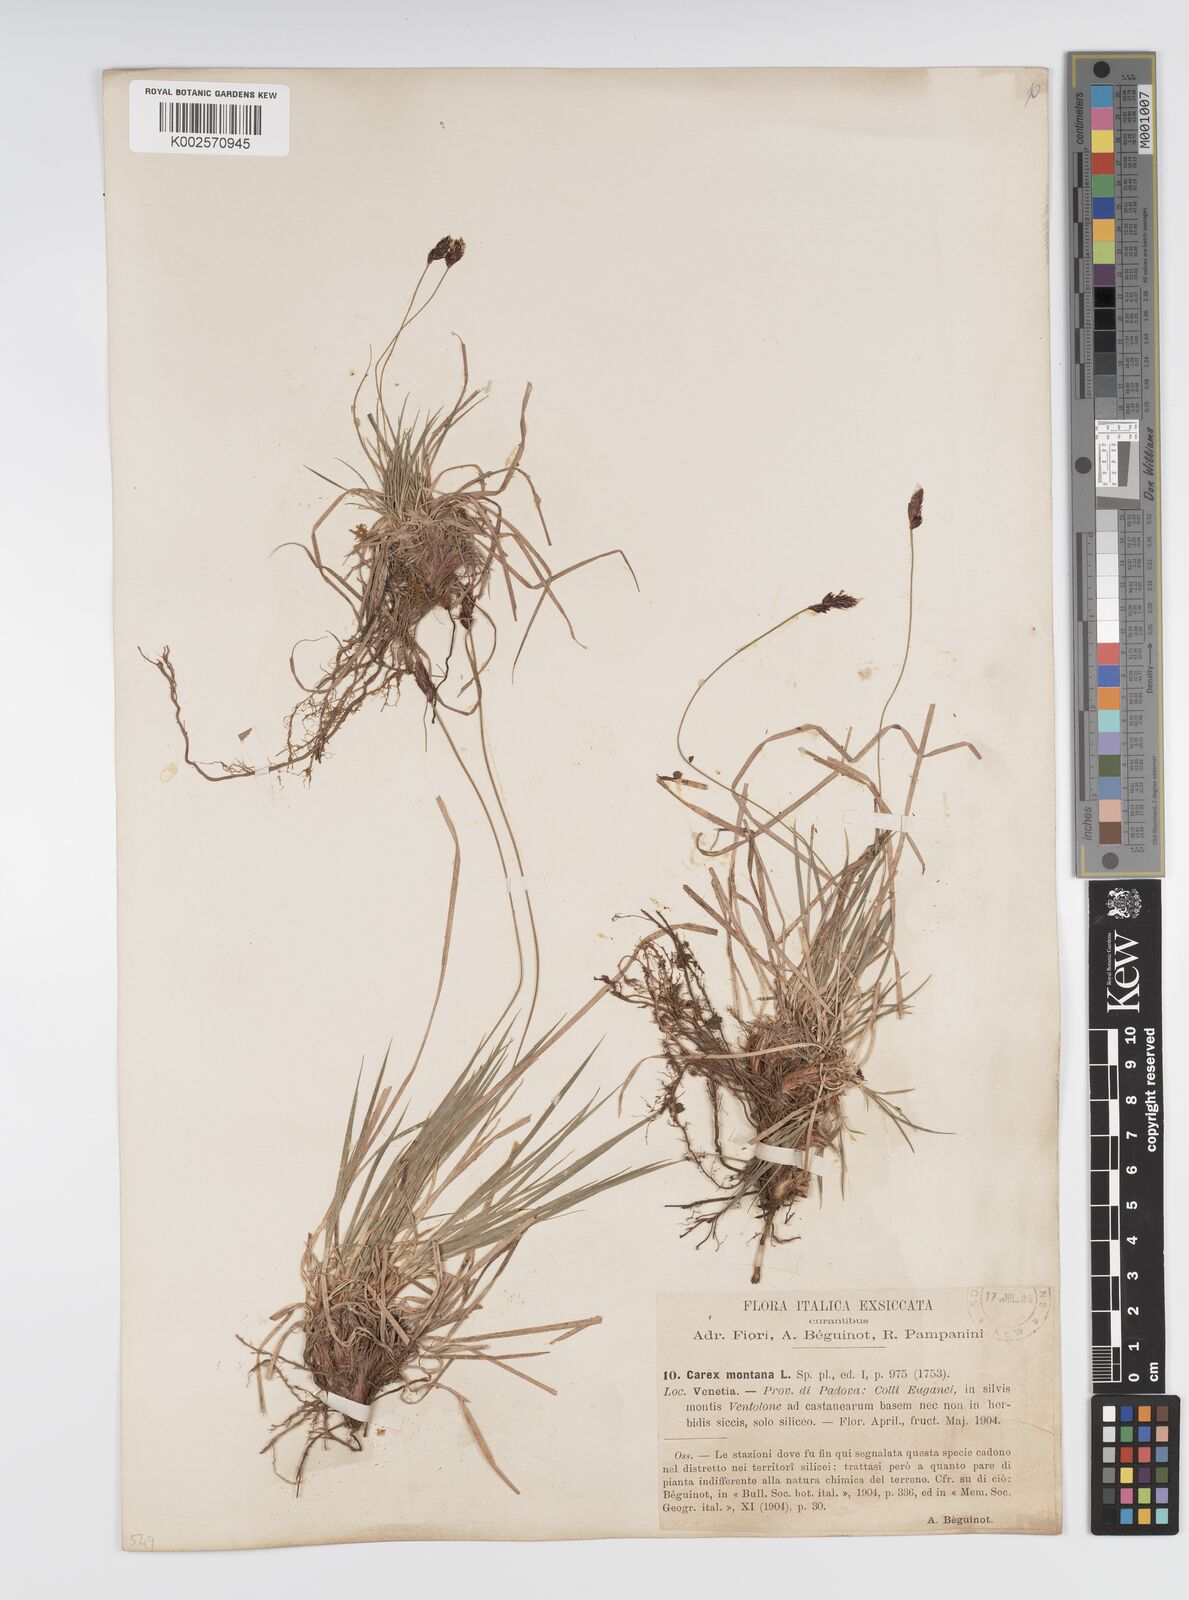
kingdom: Plantae
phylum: Tracheophyta
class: Liliopsida
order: Poales
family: Cyperaceae
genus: Carex
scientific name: Carex montana
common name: Soft-leaved sedge
